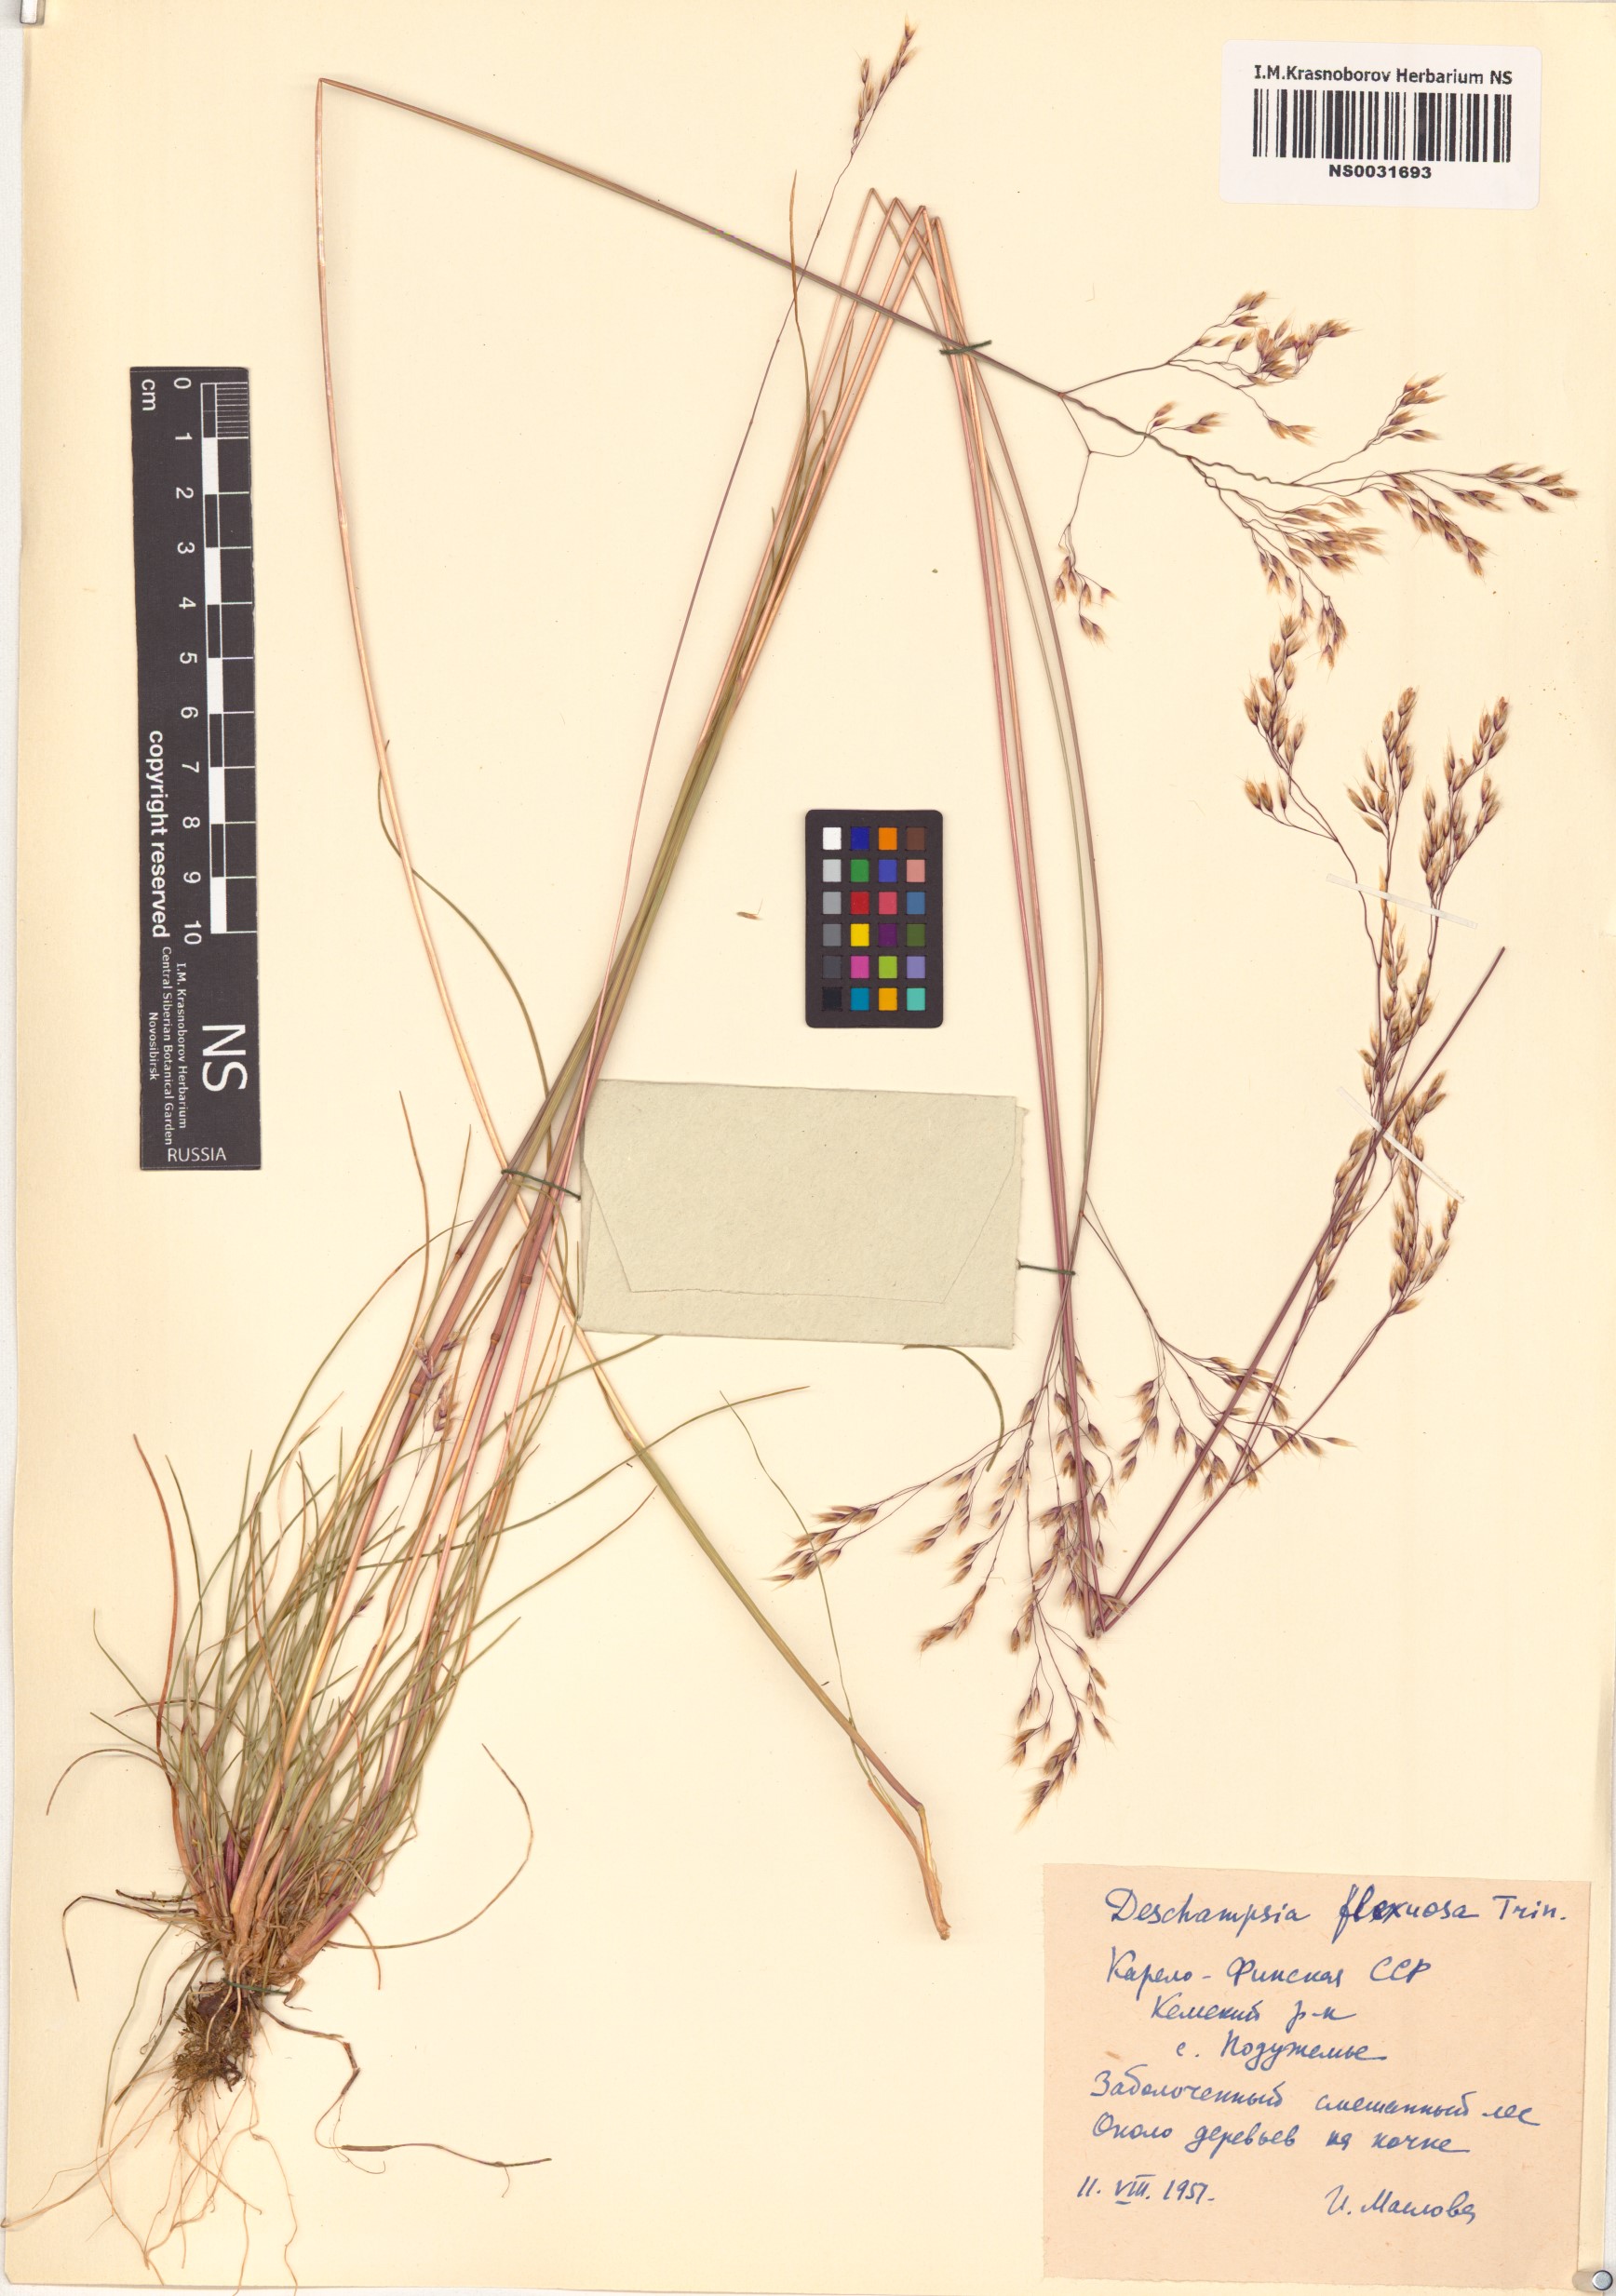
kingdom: Plantae
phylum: Tracheophyta
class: Liliopsida
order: Poales
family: Poaceae
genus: Avenella
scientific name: Avenella flexuosa
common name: Wavy hairgrass
